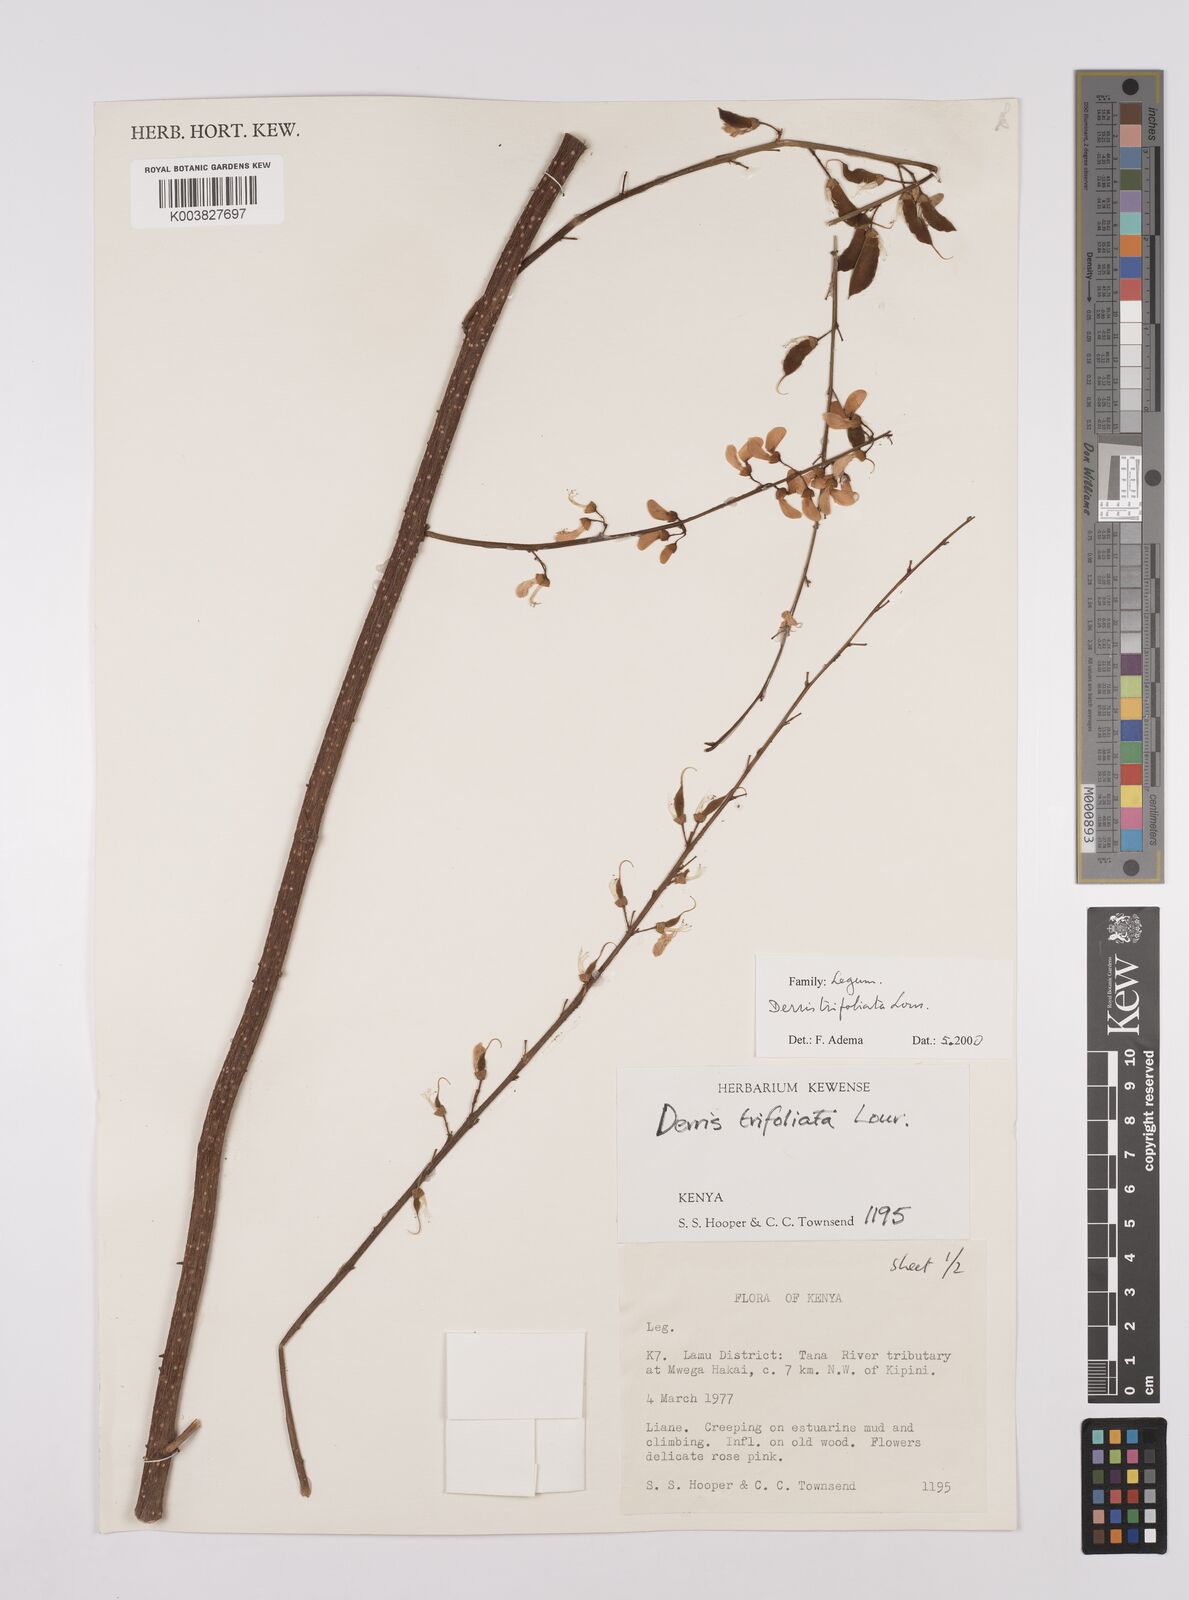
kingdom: Plantae
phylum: Tracheophyta
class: Magnoliopsida
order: Fabales
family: Fabaceae
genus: Derris
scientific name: Derris trifoliata
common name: Three-leaf derris
